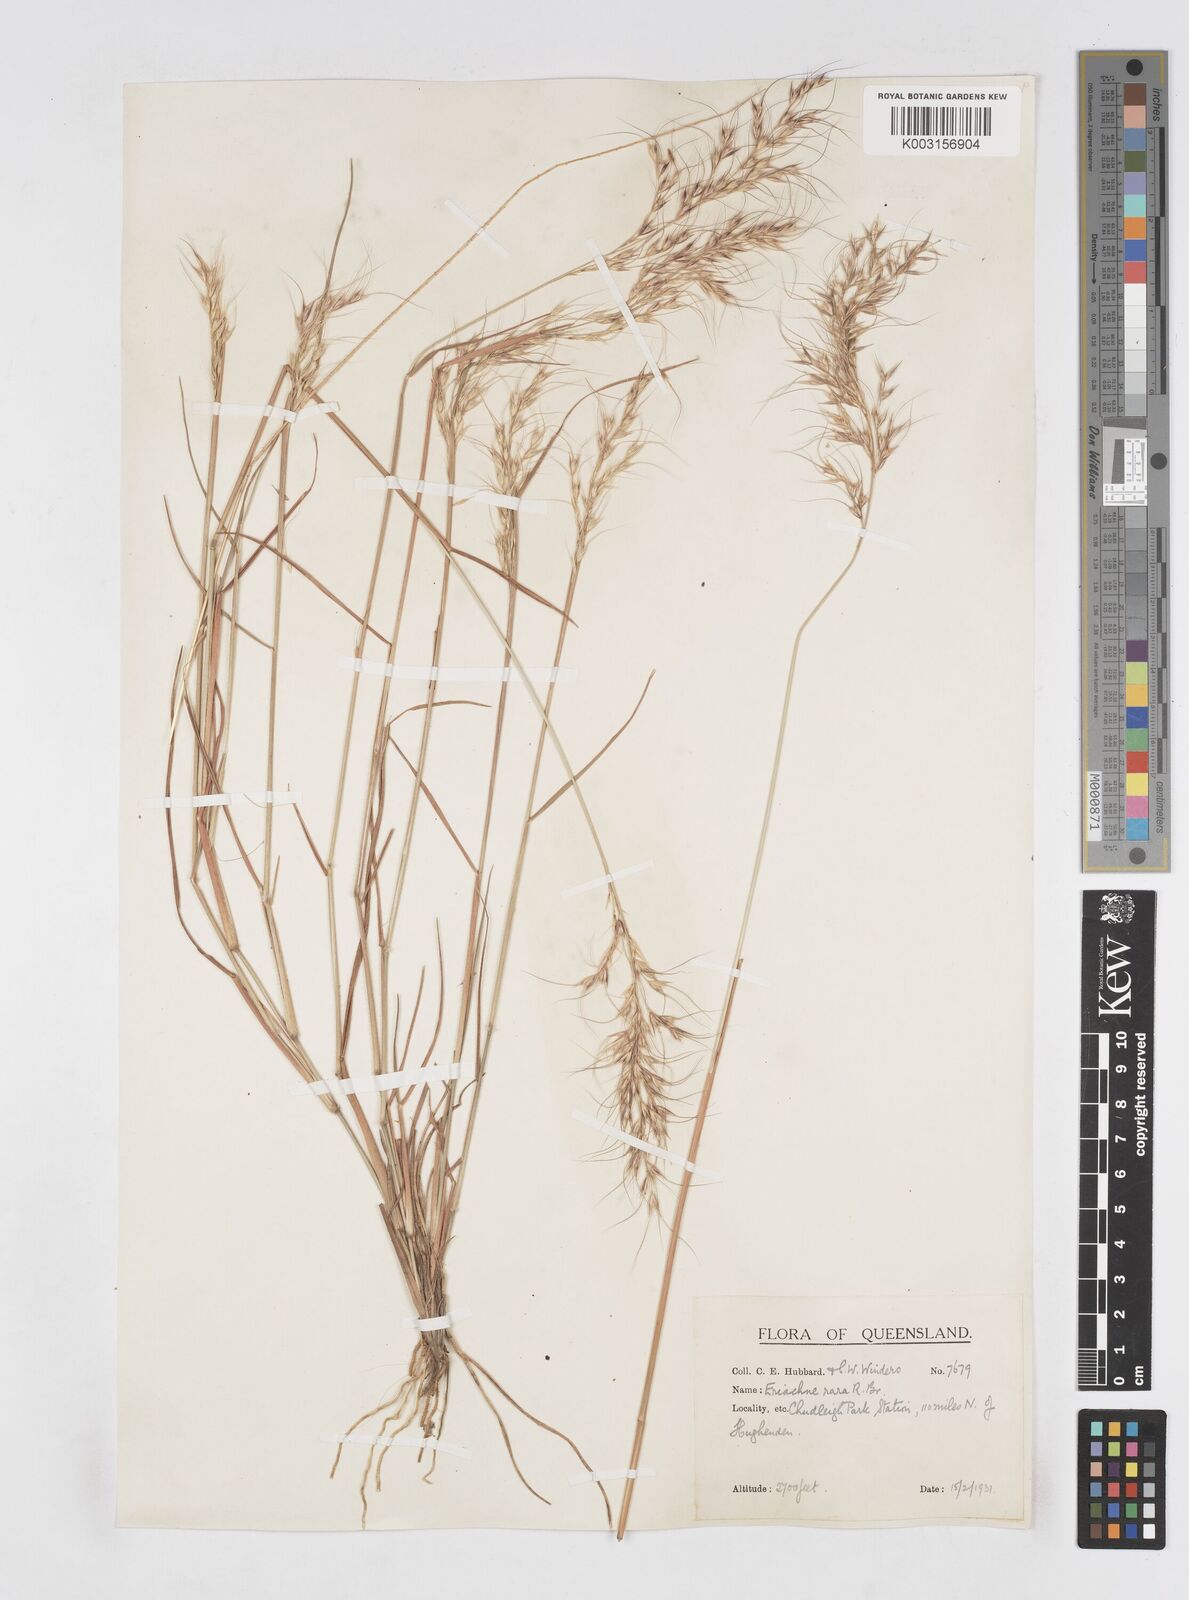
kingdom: Plantae
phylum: Tracheophyta
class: Liliopsida
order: Poales
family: Poaceae
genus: Eriachne
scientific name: Eriachne rara
